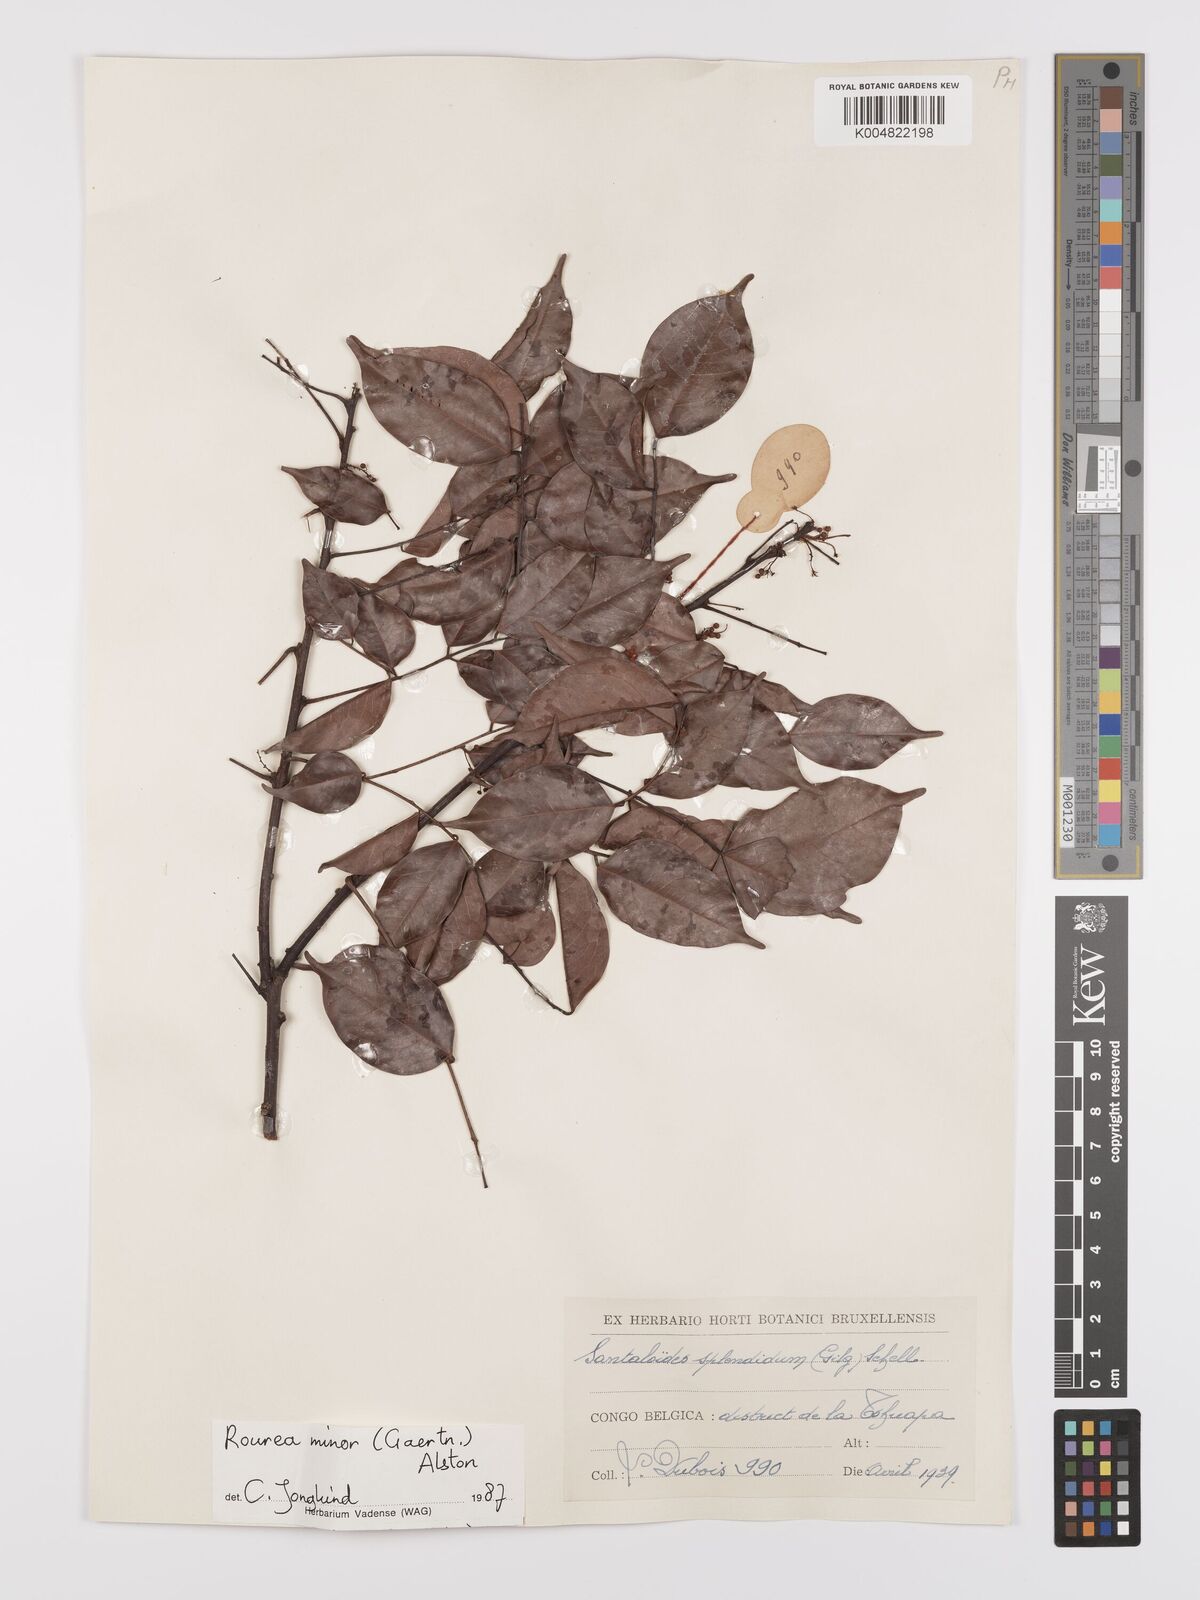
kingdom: Plantae
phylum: Tracheophyta
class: Magnoliopsida
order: Oxalidales
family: Connaraceae
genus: Rourea
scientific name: Rourea minor
